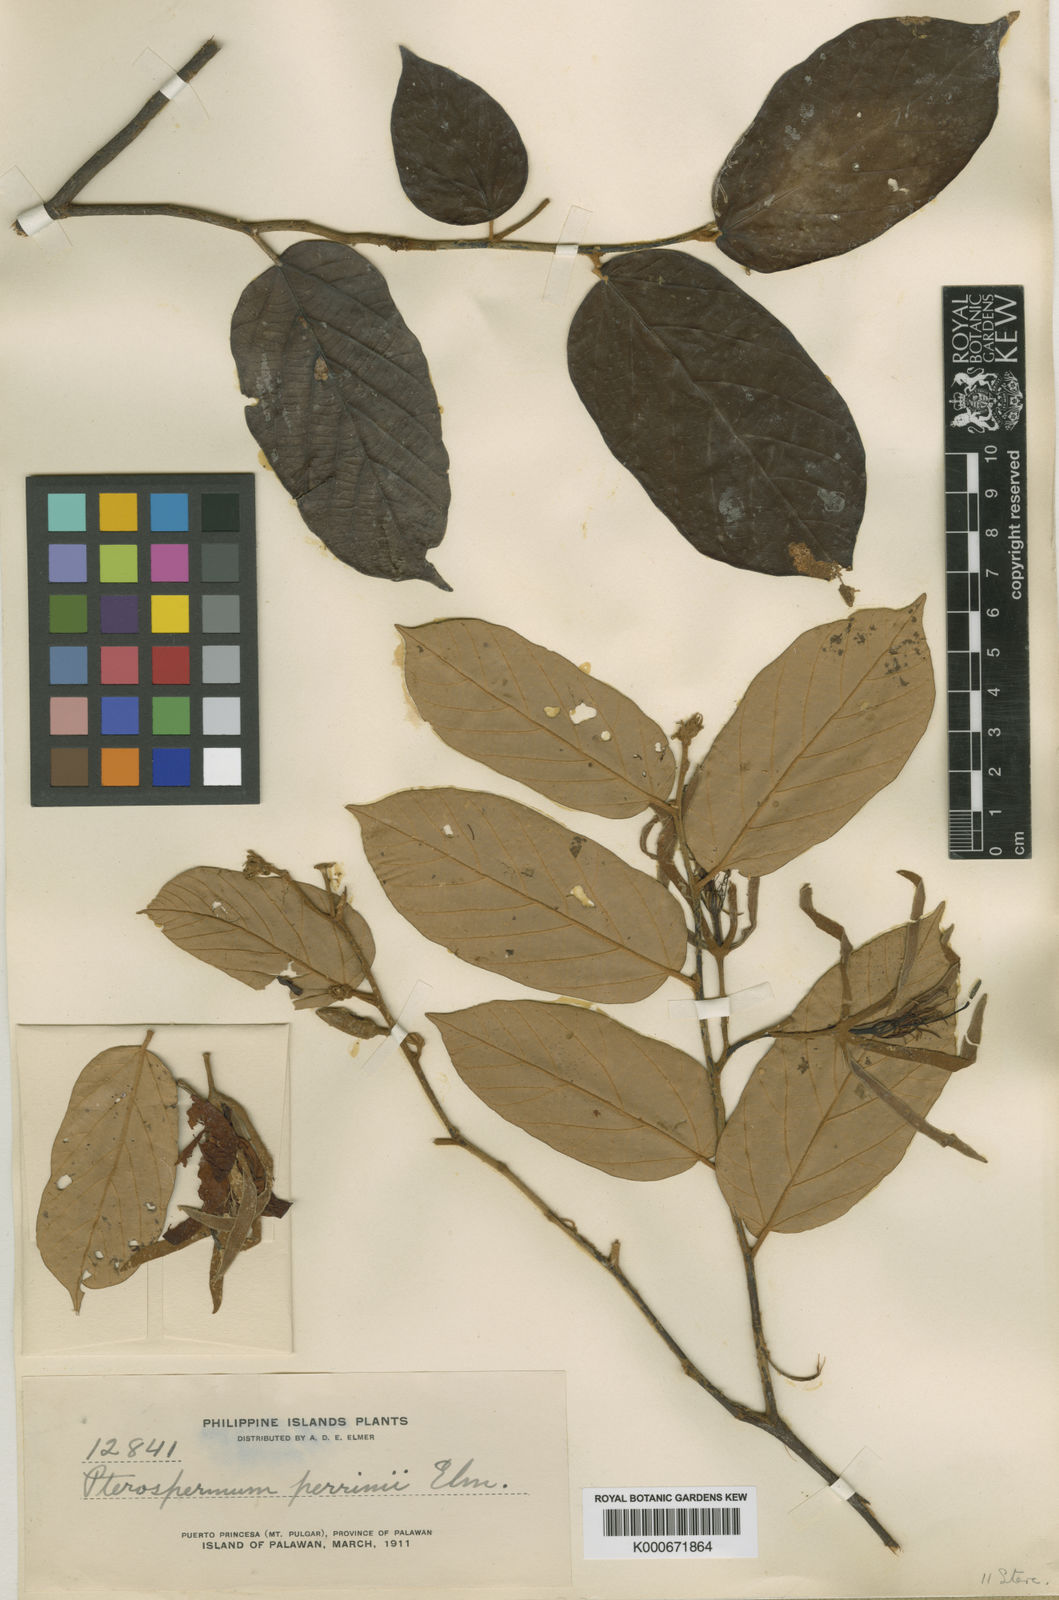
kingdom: Plantae
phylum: Tracheophyta
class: Magnoliopsida
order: Malvales
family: Malvaceae
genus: Pterospermum
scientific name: Pterospermum elongatum
